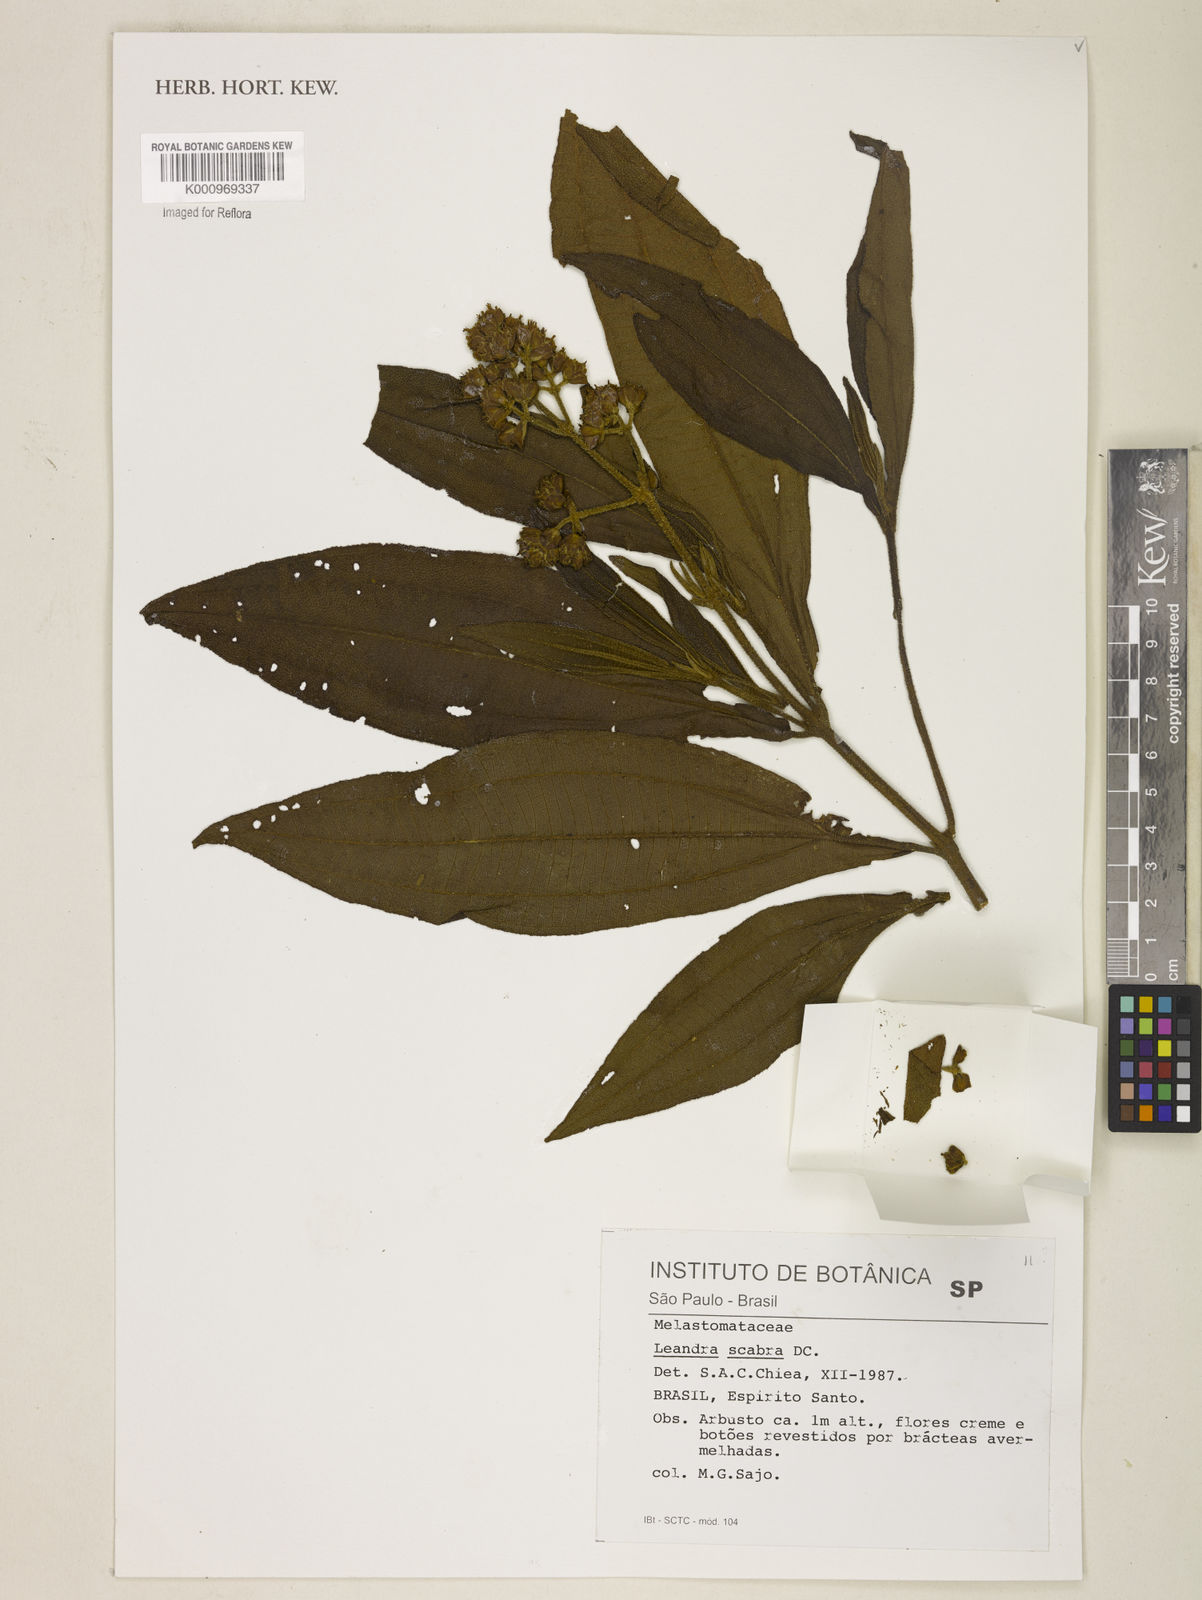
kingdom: Plantae
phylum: Tracheophyta
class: Magnoliopsida
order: Myrtales
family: Melastomataceae
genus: Miconia
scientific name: Miconia melastomoides
